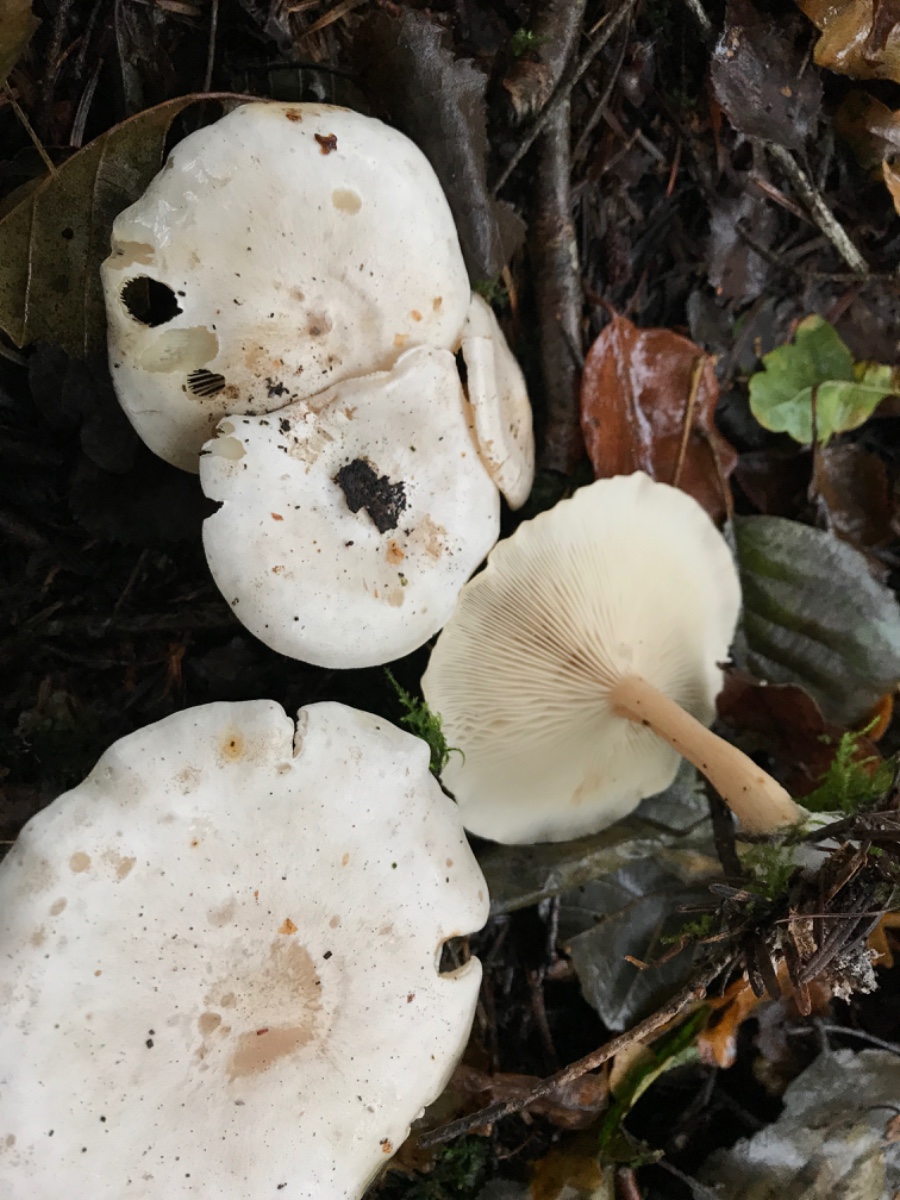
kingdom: Fungi
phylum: Basidiomycota
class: Agaricomycetes
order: Agaricales
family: Tricholomataceae
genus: Clitocybe
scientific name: Clitocybe phyllophila
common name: løv-tragthat
